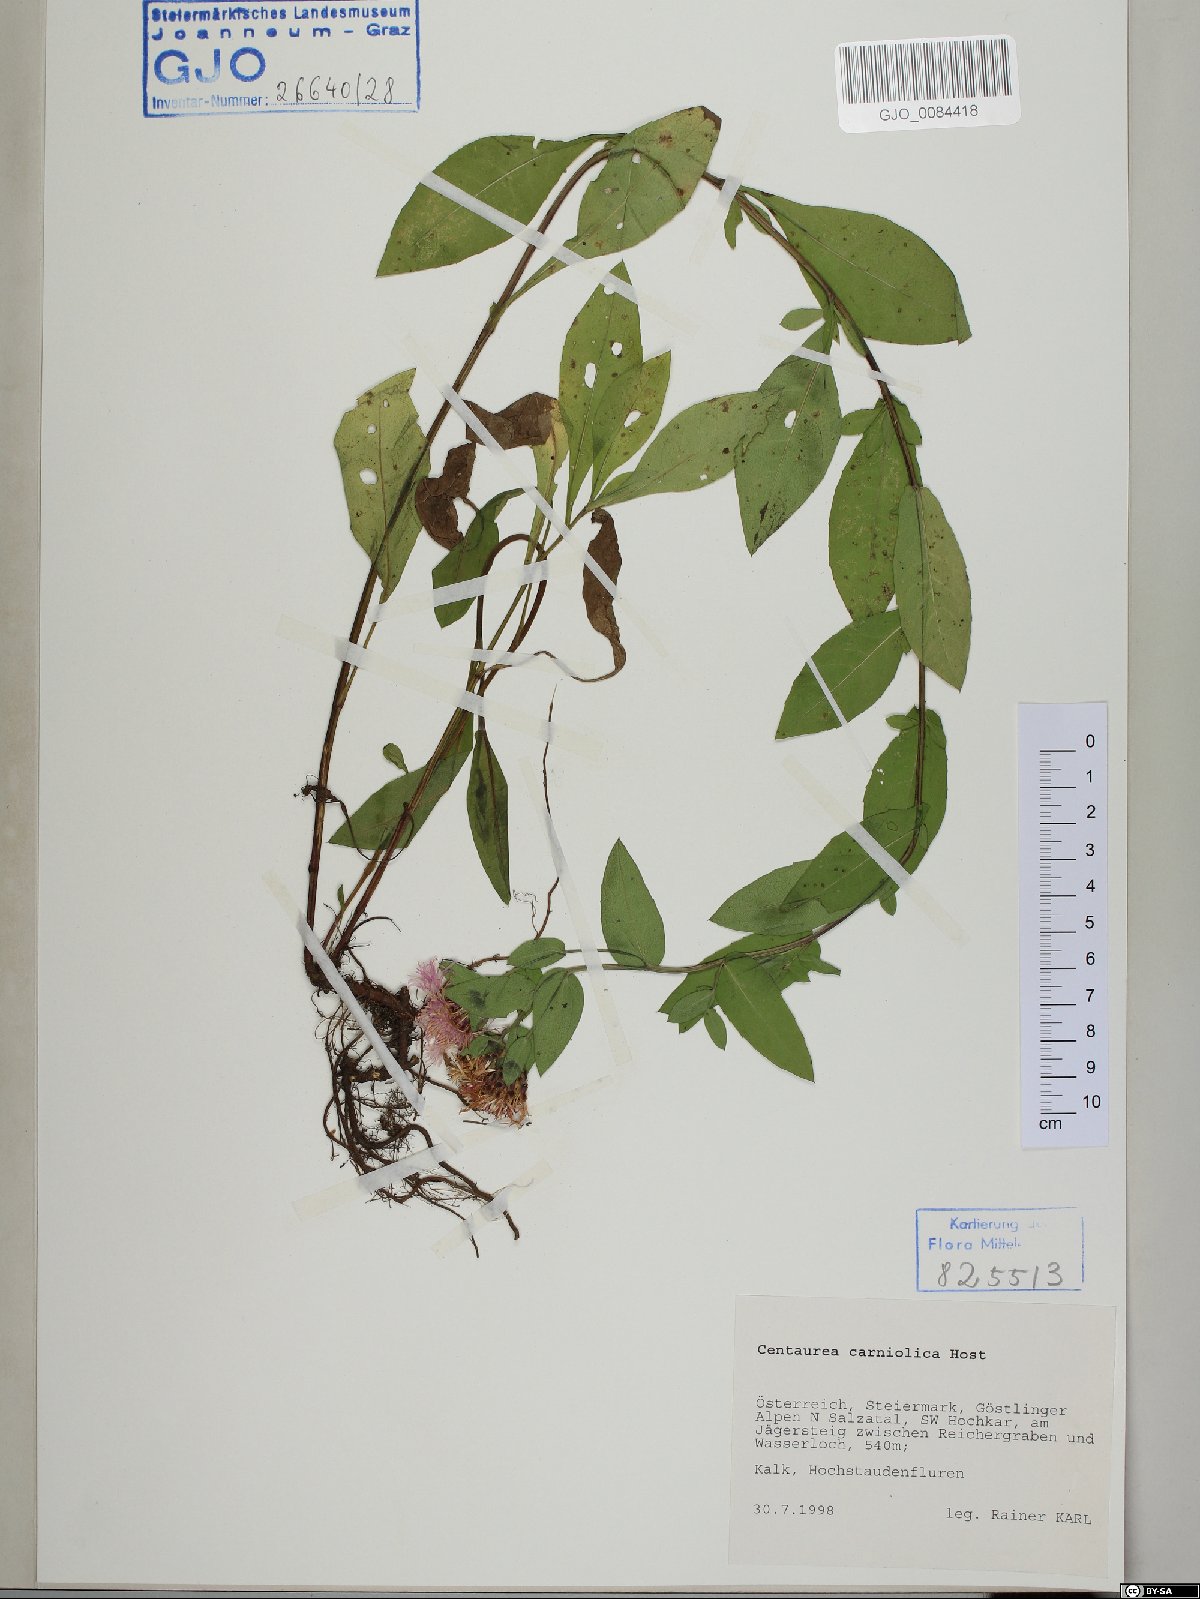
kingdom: Plantae
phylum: Tracheophyta
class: Magnoliopsida
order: Asterales
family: Asteraceae
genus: Centaurea
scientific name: Centaurea carniolica
